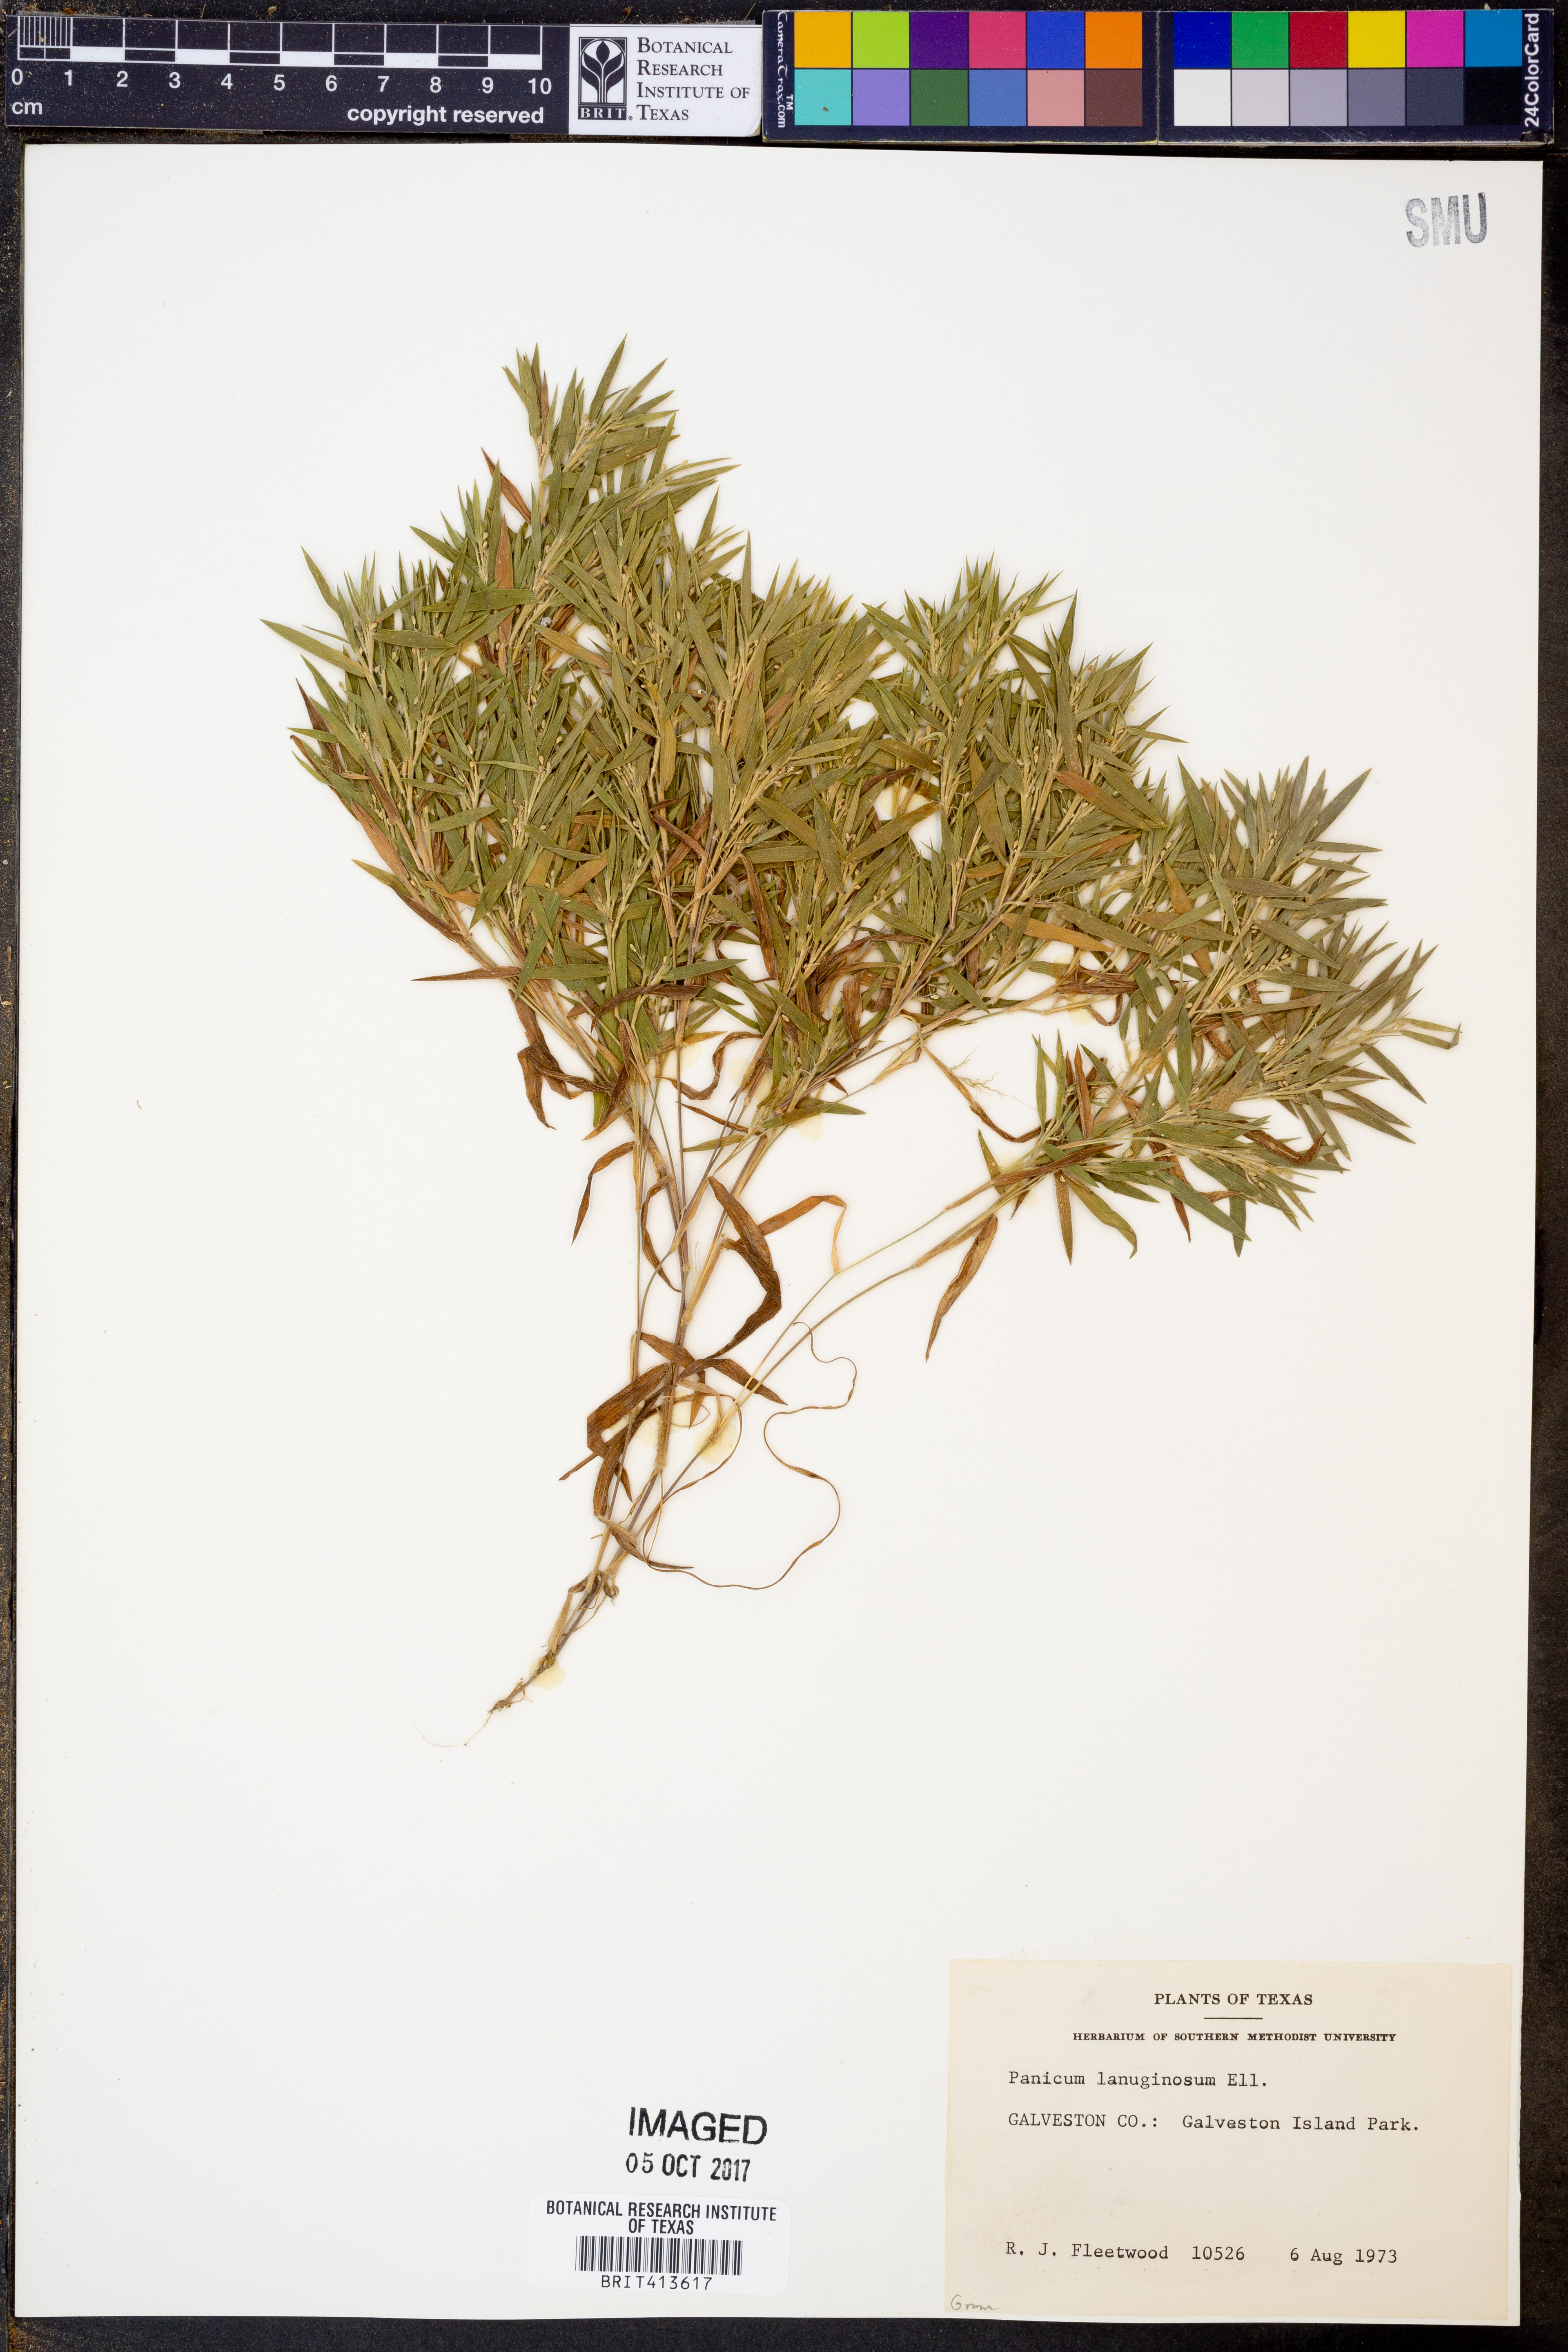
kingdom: Plantae
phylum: Tracheophyta
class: Liliopsida
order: Poales
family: Poaceae
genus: Dichanthelium
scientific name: Dichanthelium lanuginosum
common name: Woolly panicgrass
